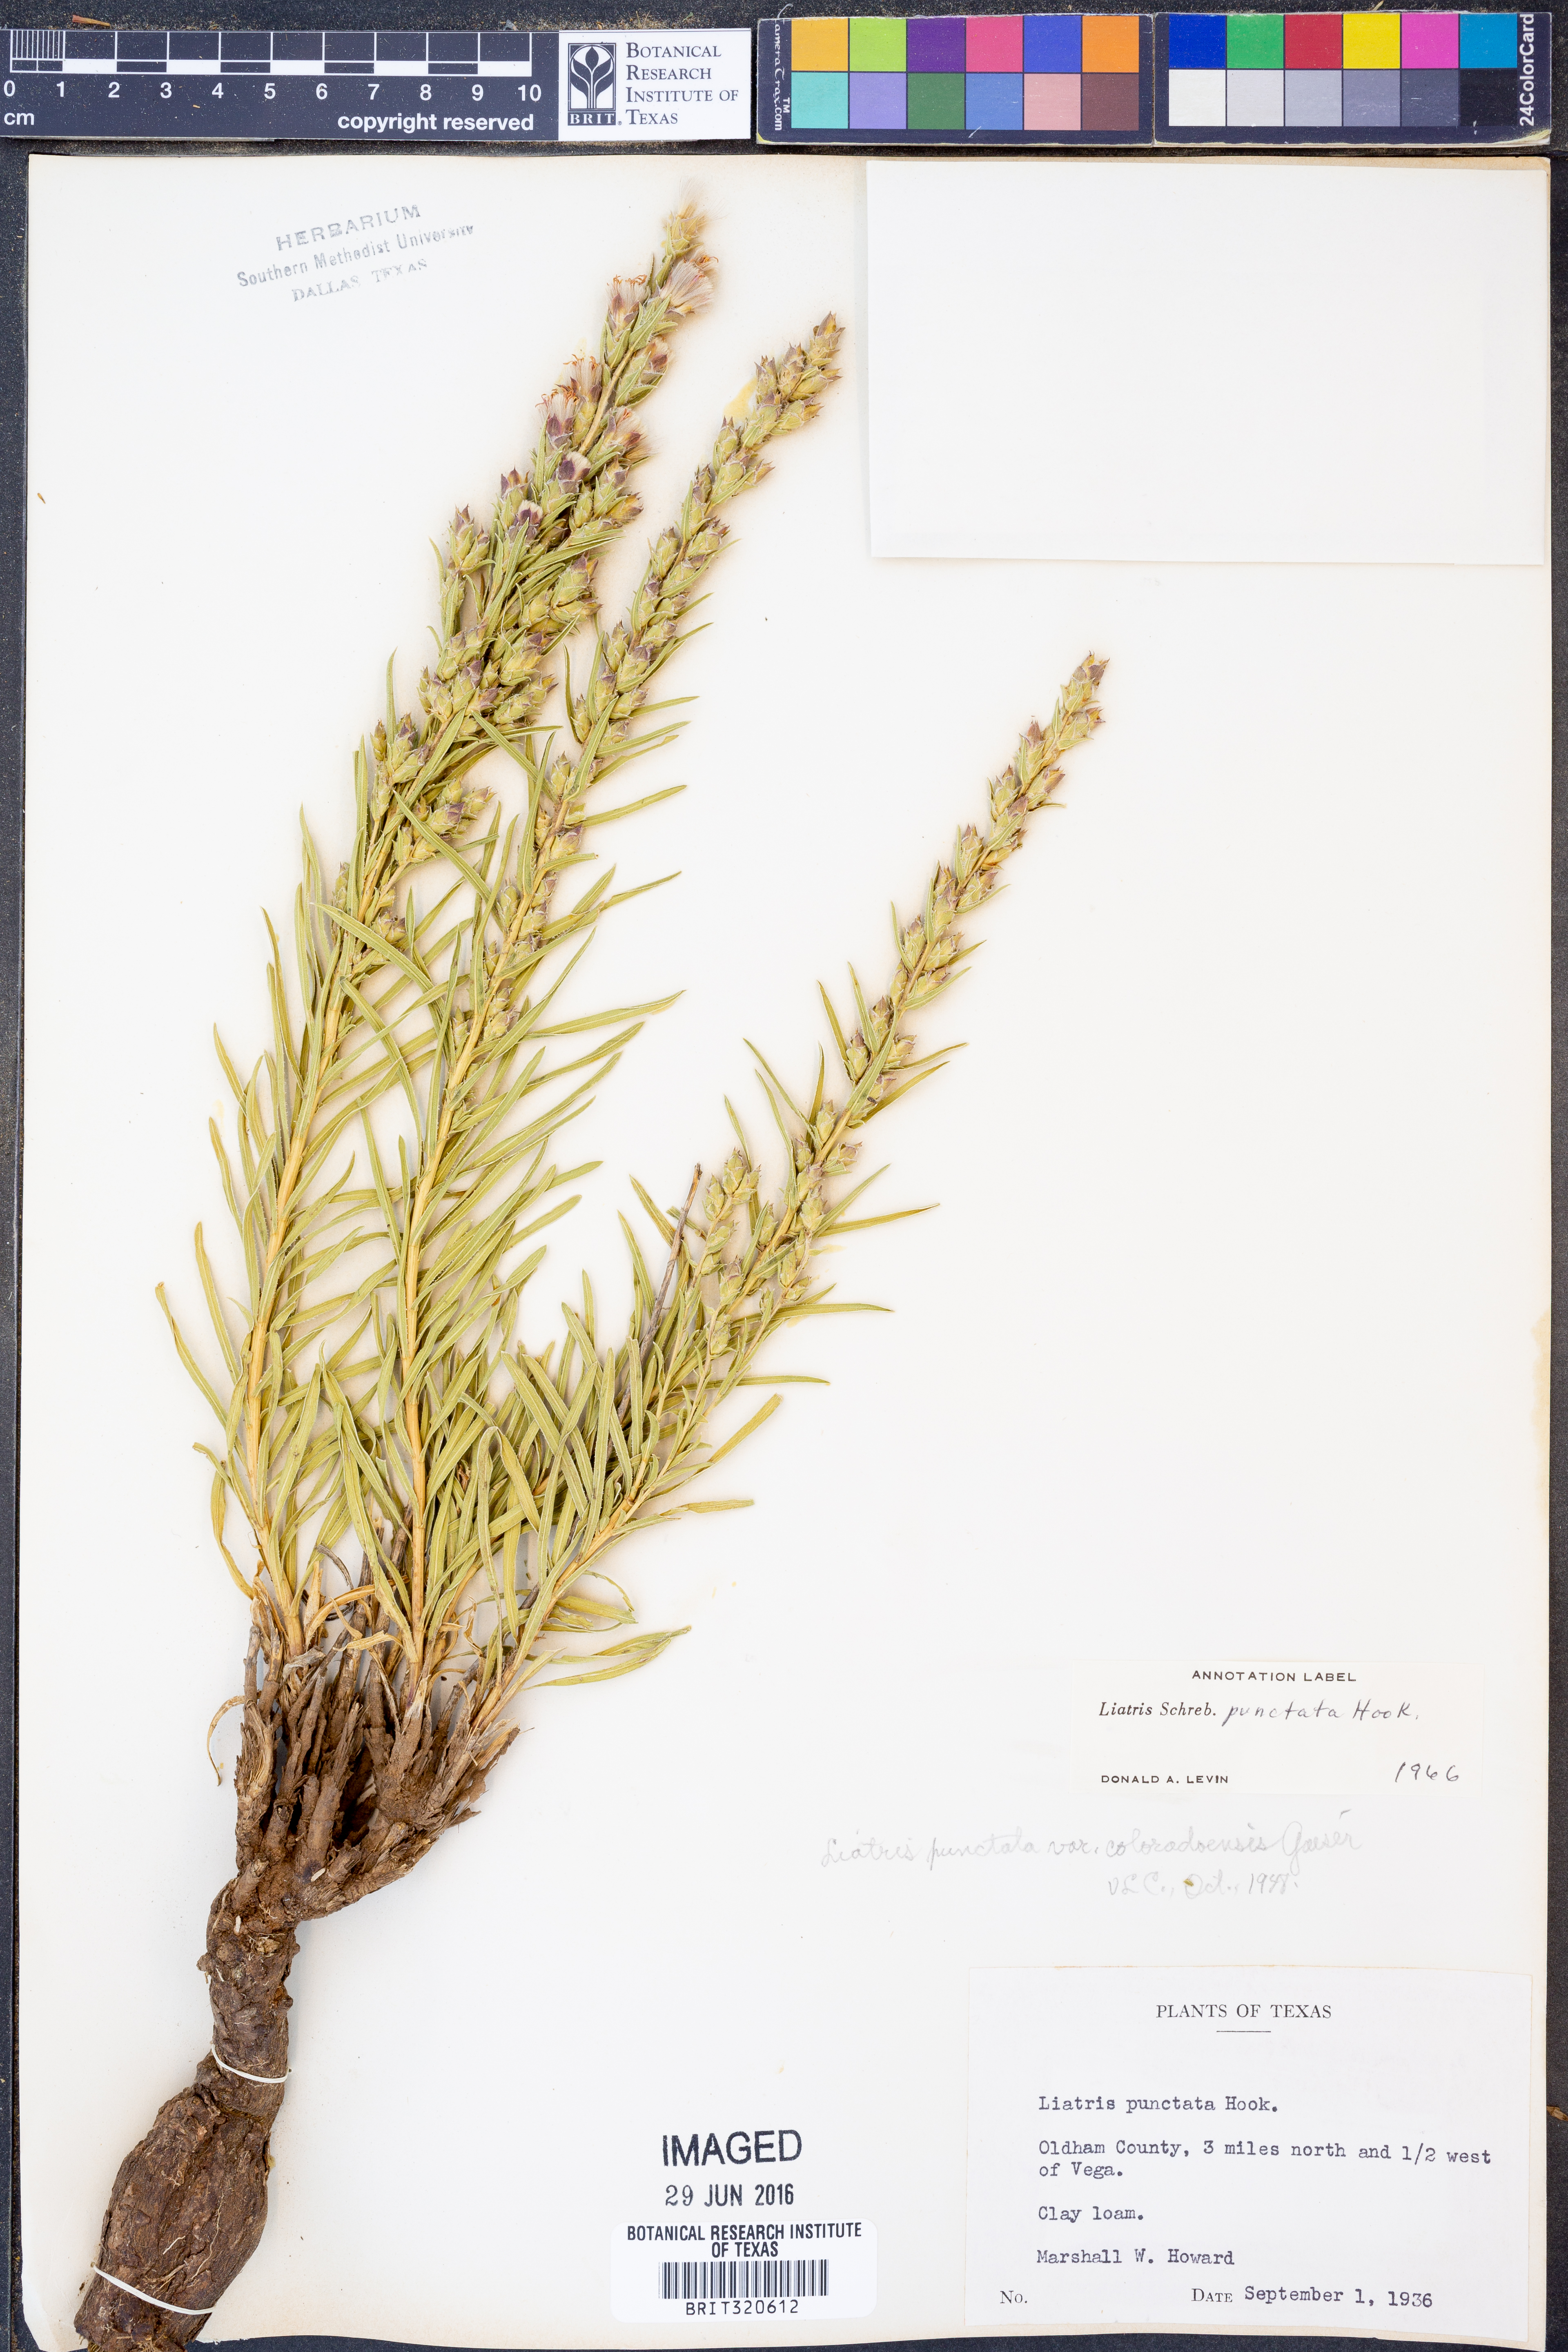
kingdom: Plantae
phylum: Tracheophyta
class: Magnoliopsida
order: Asterales
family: Asteraceae
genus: Liatris
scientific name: Liatris punctata
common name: Dotted gayfeather
